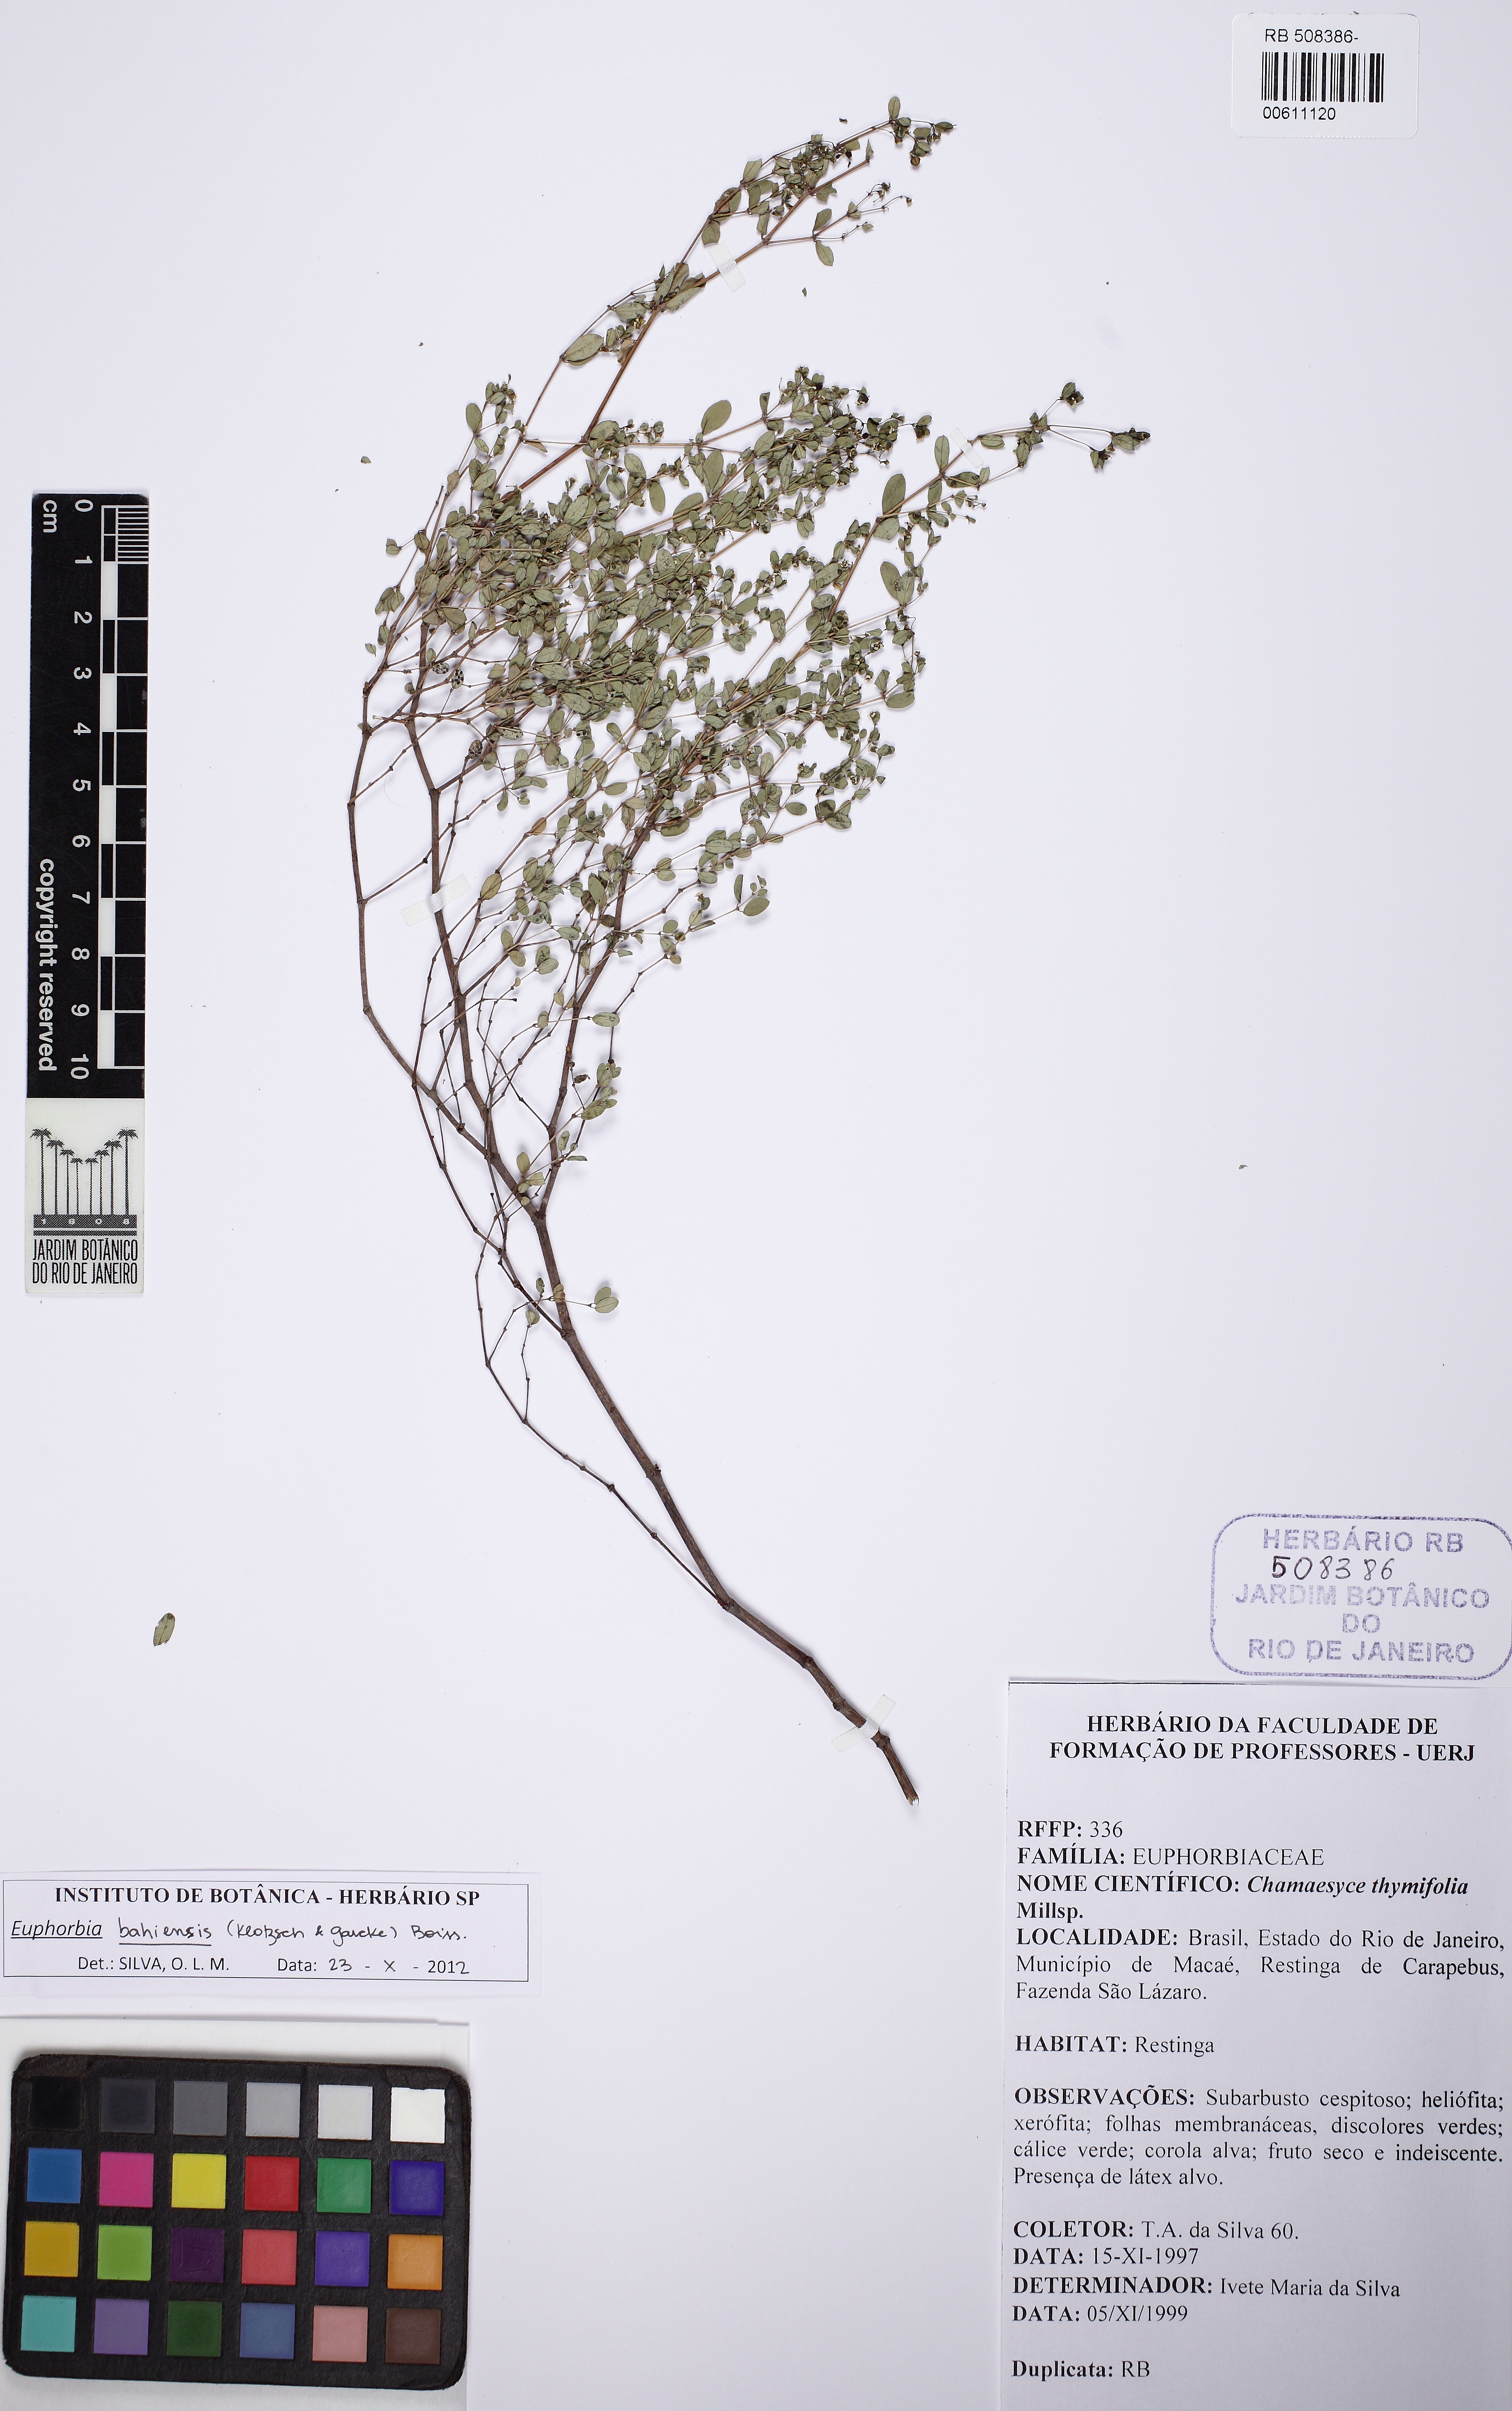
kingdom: Plantae
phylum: Tracheophyta
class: Magnoliopsida
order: Malpighiales
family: Euphorbiaceae
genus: Euphorbia
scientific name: Euphorbia bahiensis
